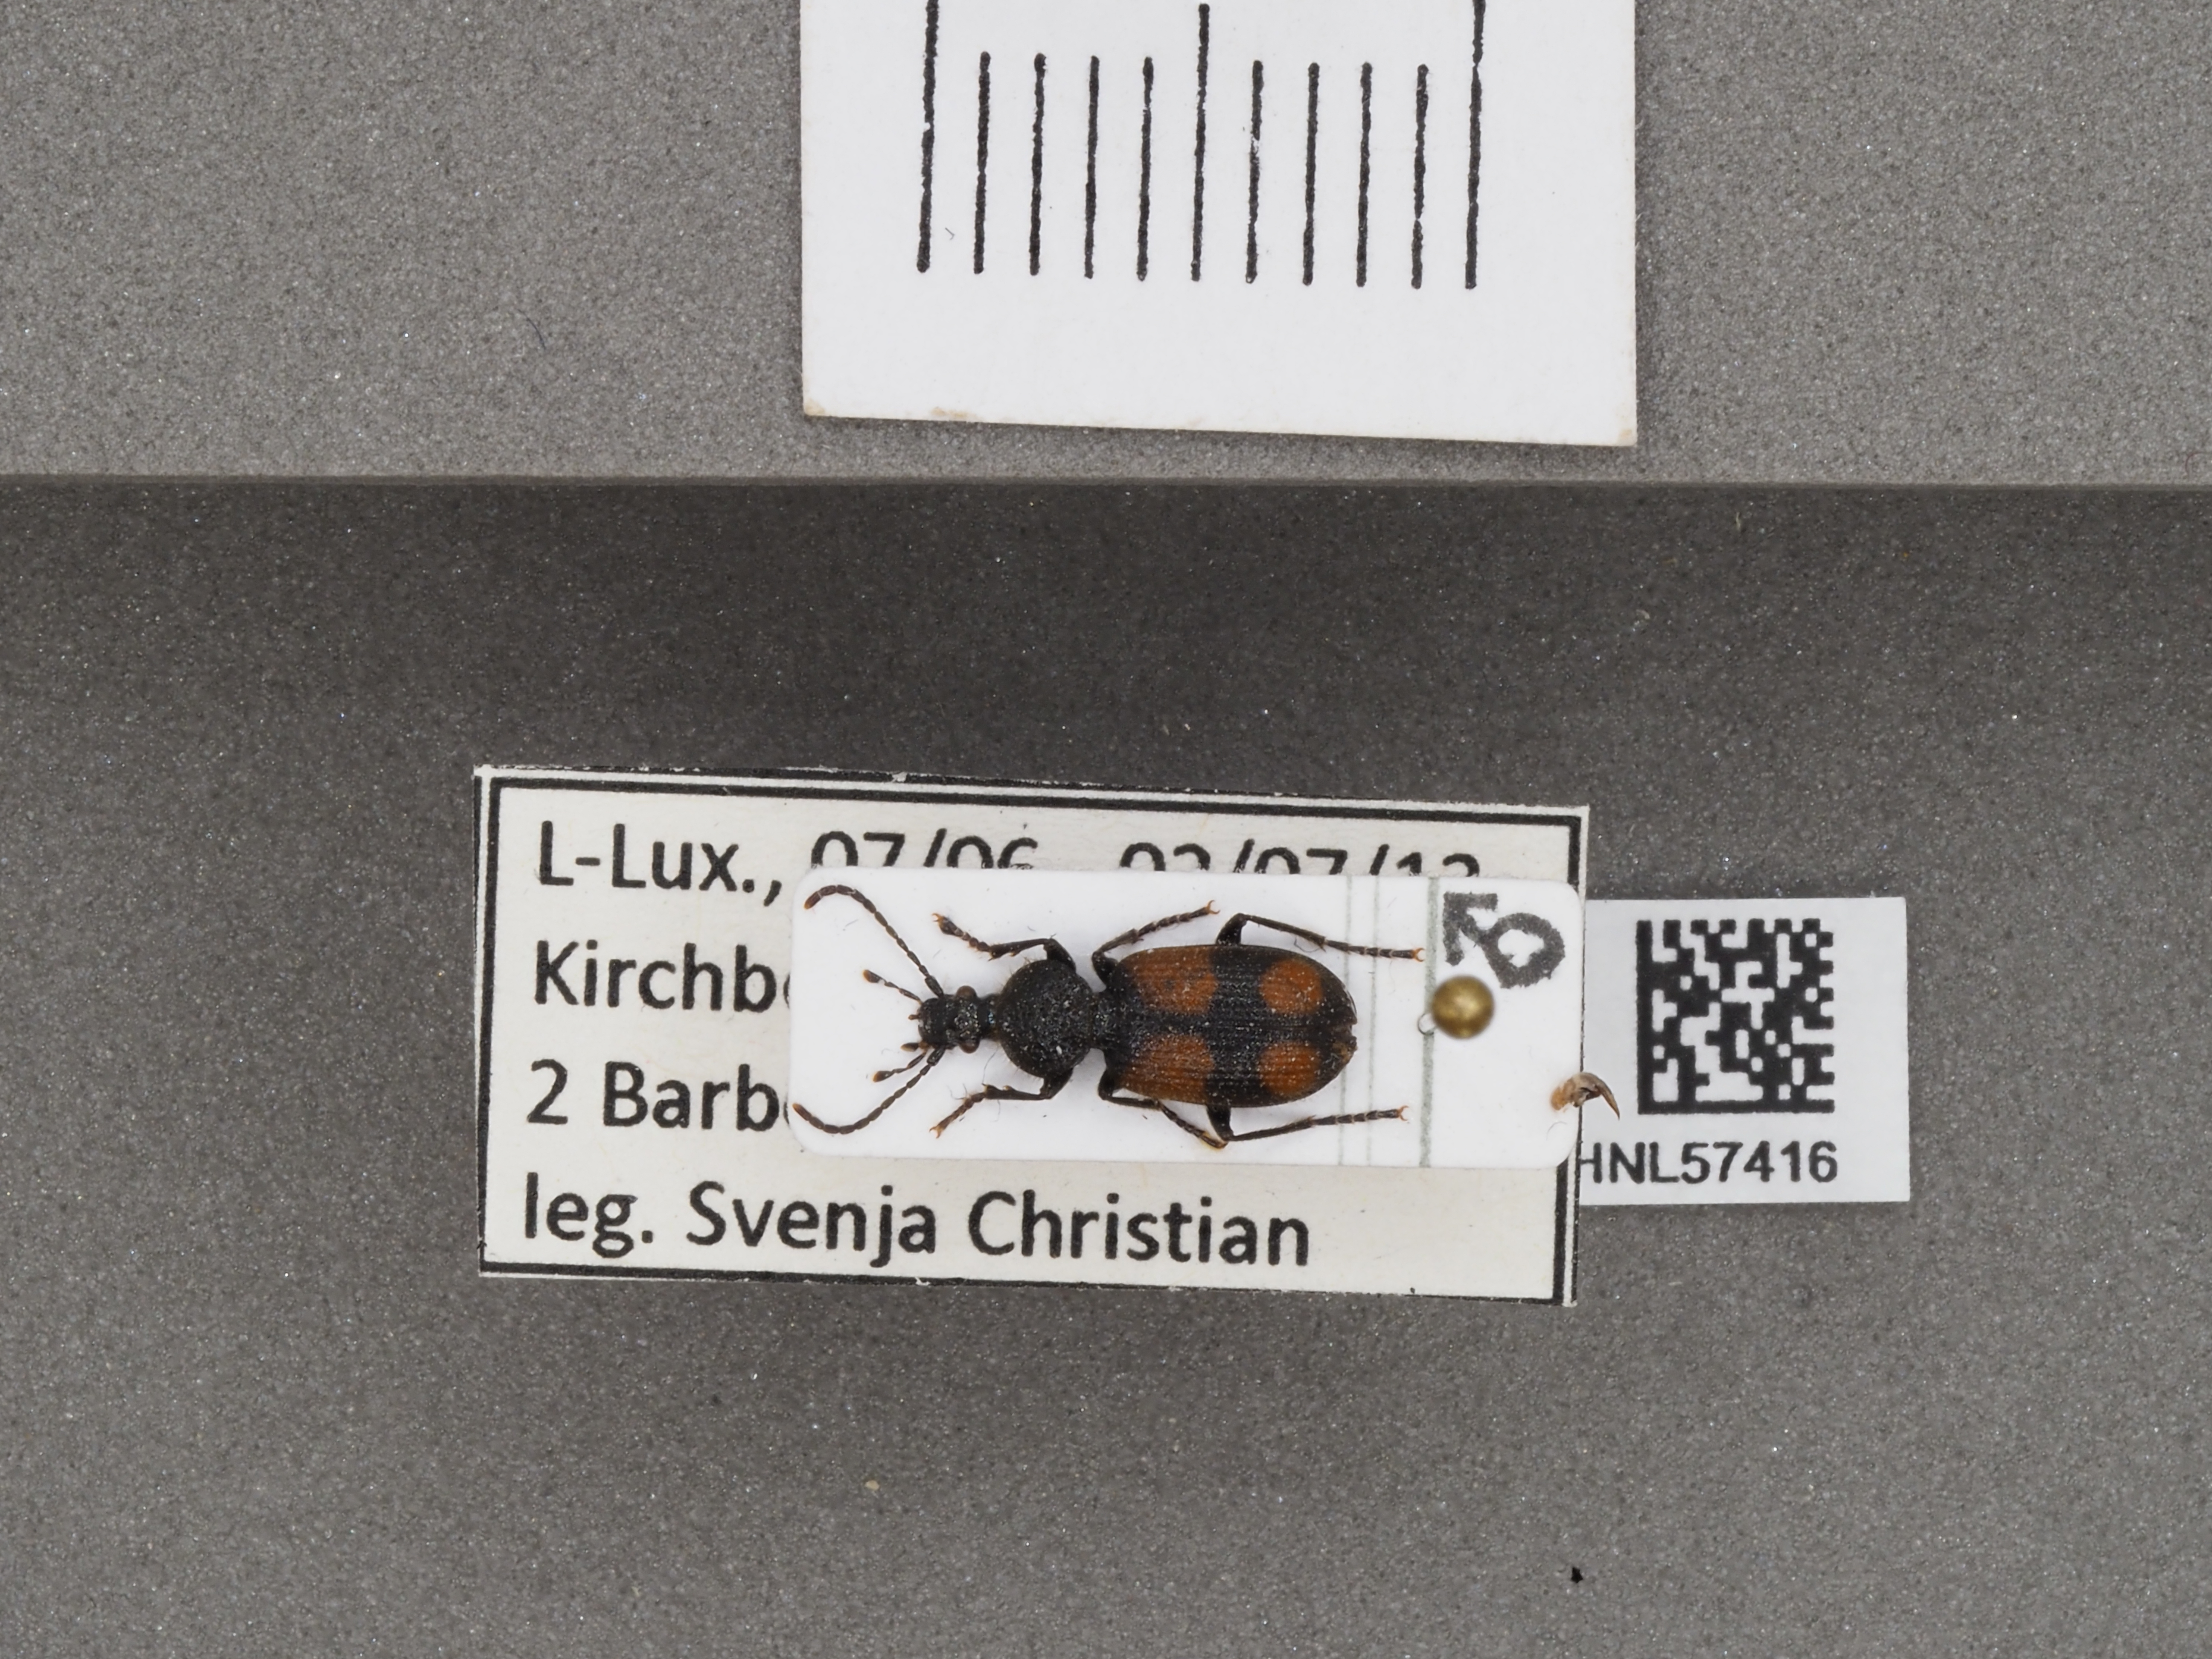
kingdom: Animalia
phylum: Arthropoda
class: Insecta
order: Coleoptera
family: Carabidae
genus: Panagaeus
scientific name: Panagaeus bipustulatus
